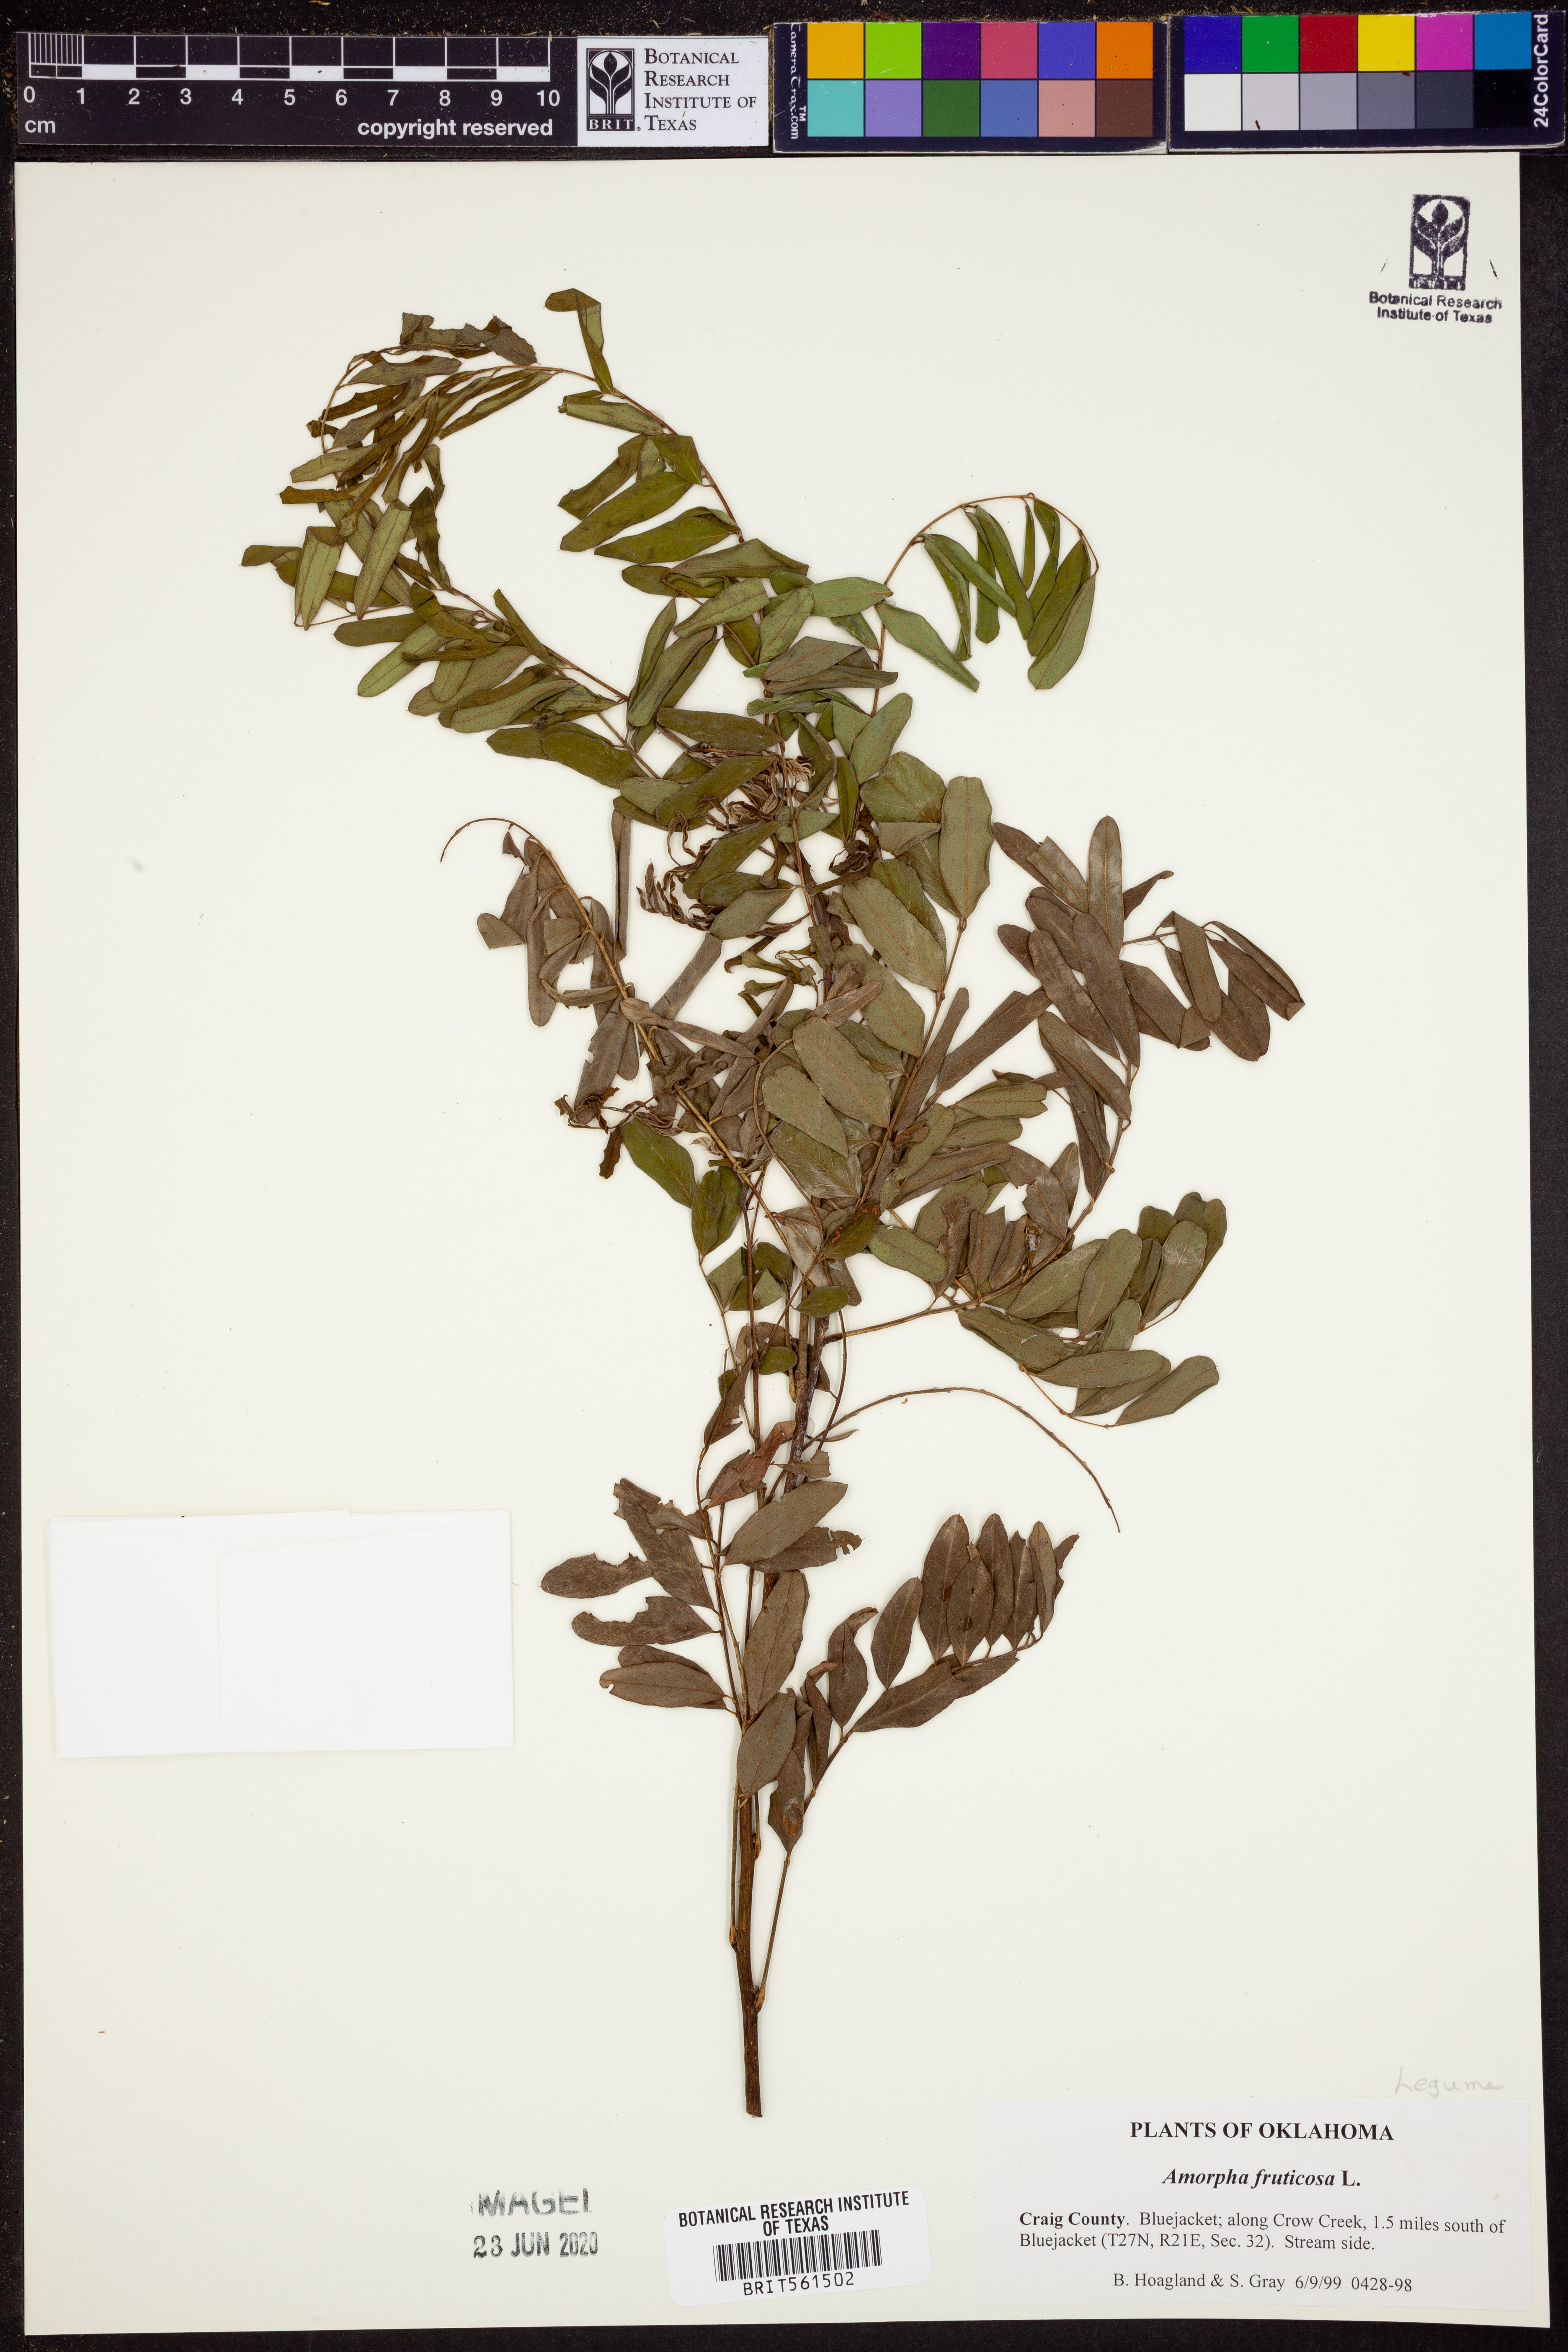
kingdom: Plantae
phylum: Tracheophyta
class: Magnoliopsida
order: Fabales
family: Fabaceae
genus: Amorpha
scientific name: Amorpha fruticosa
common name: False indigo
